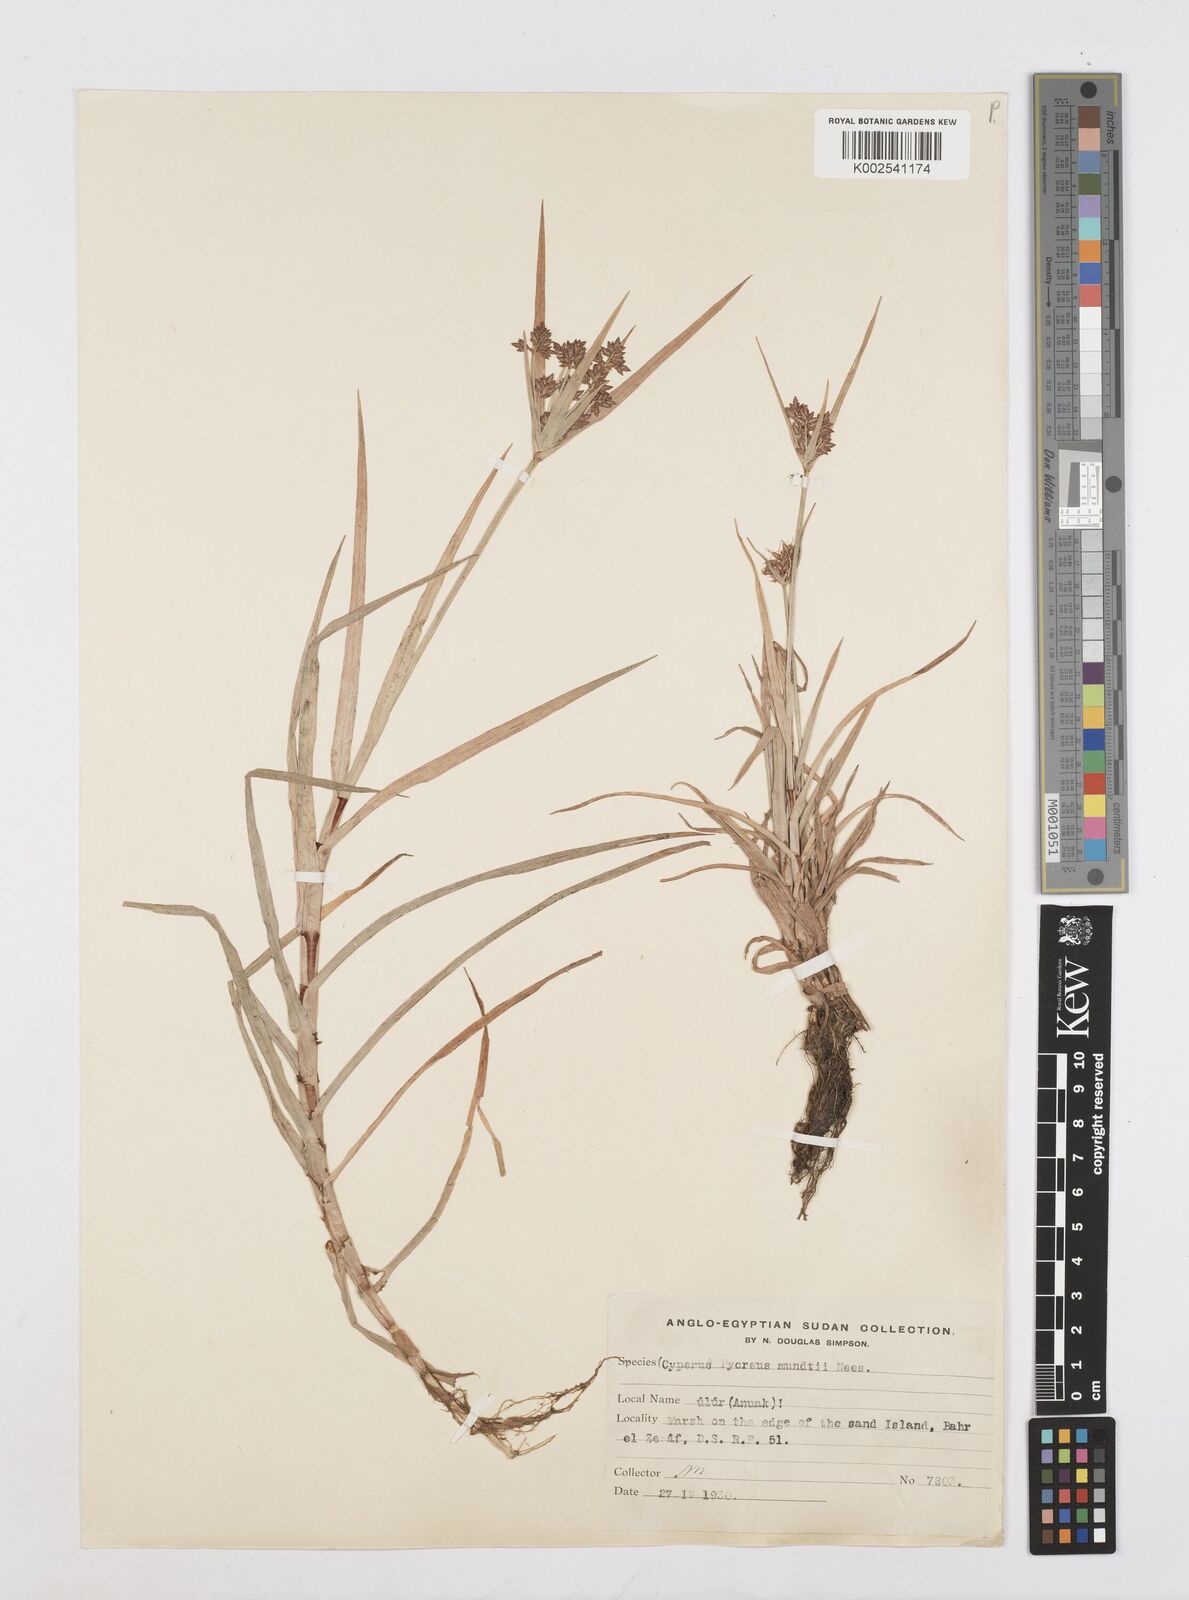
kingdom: Plantae
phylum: Tracheophyta
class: Liliopsida
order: Poales
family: Cyperaceae
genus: Cyperus
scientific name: Cyperus mundii
